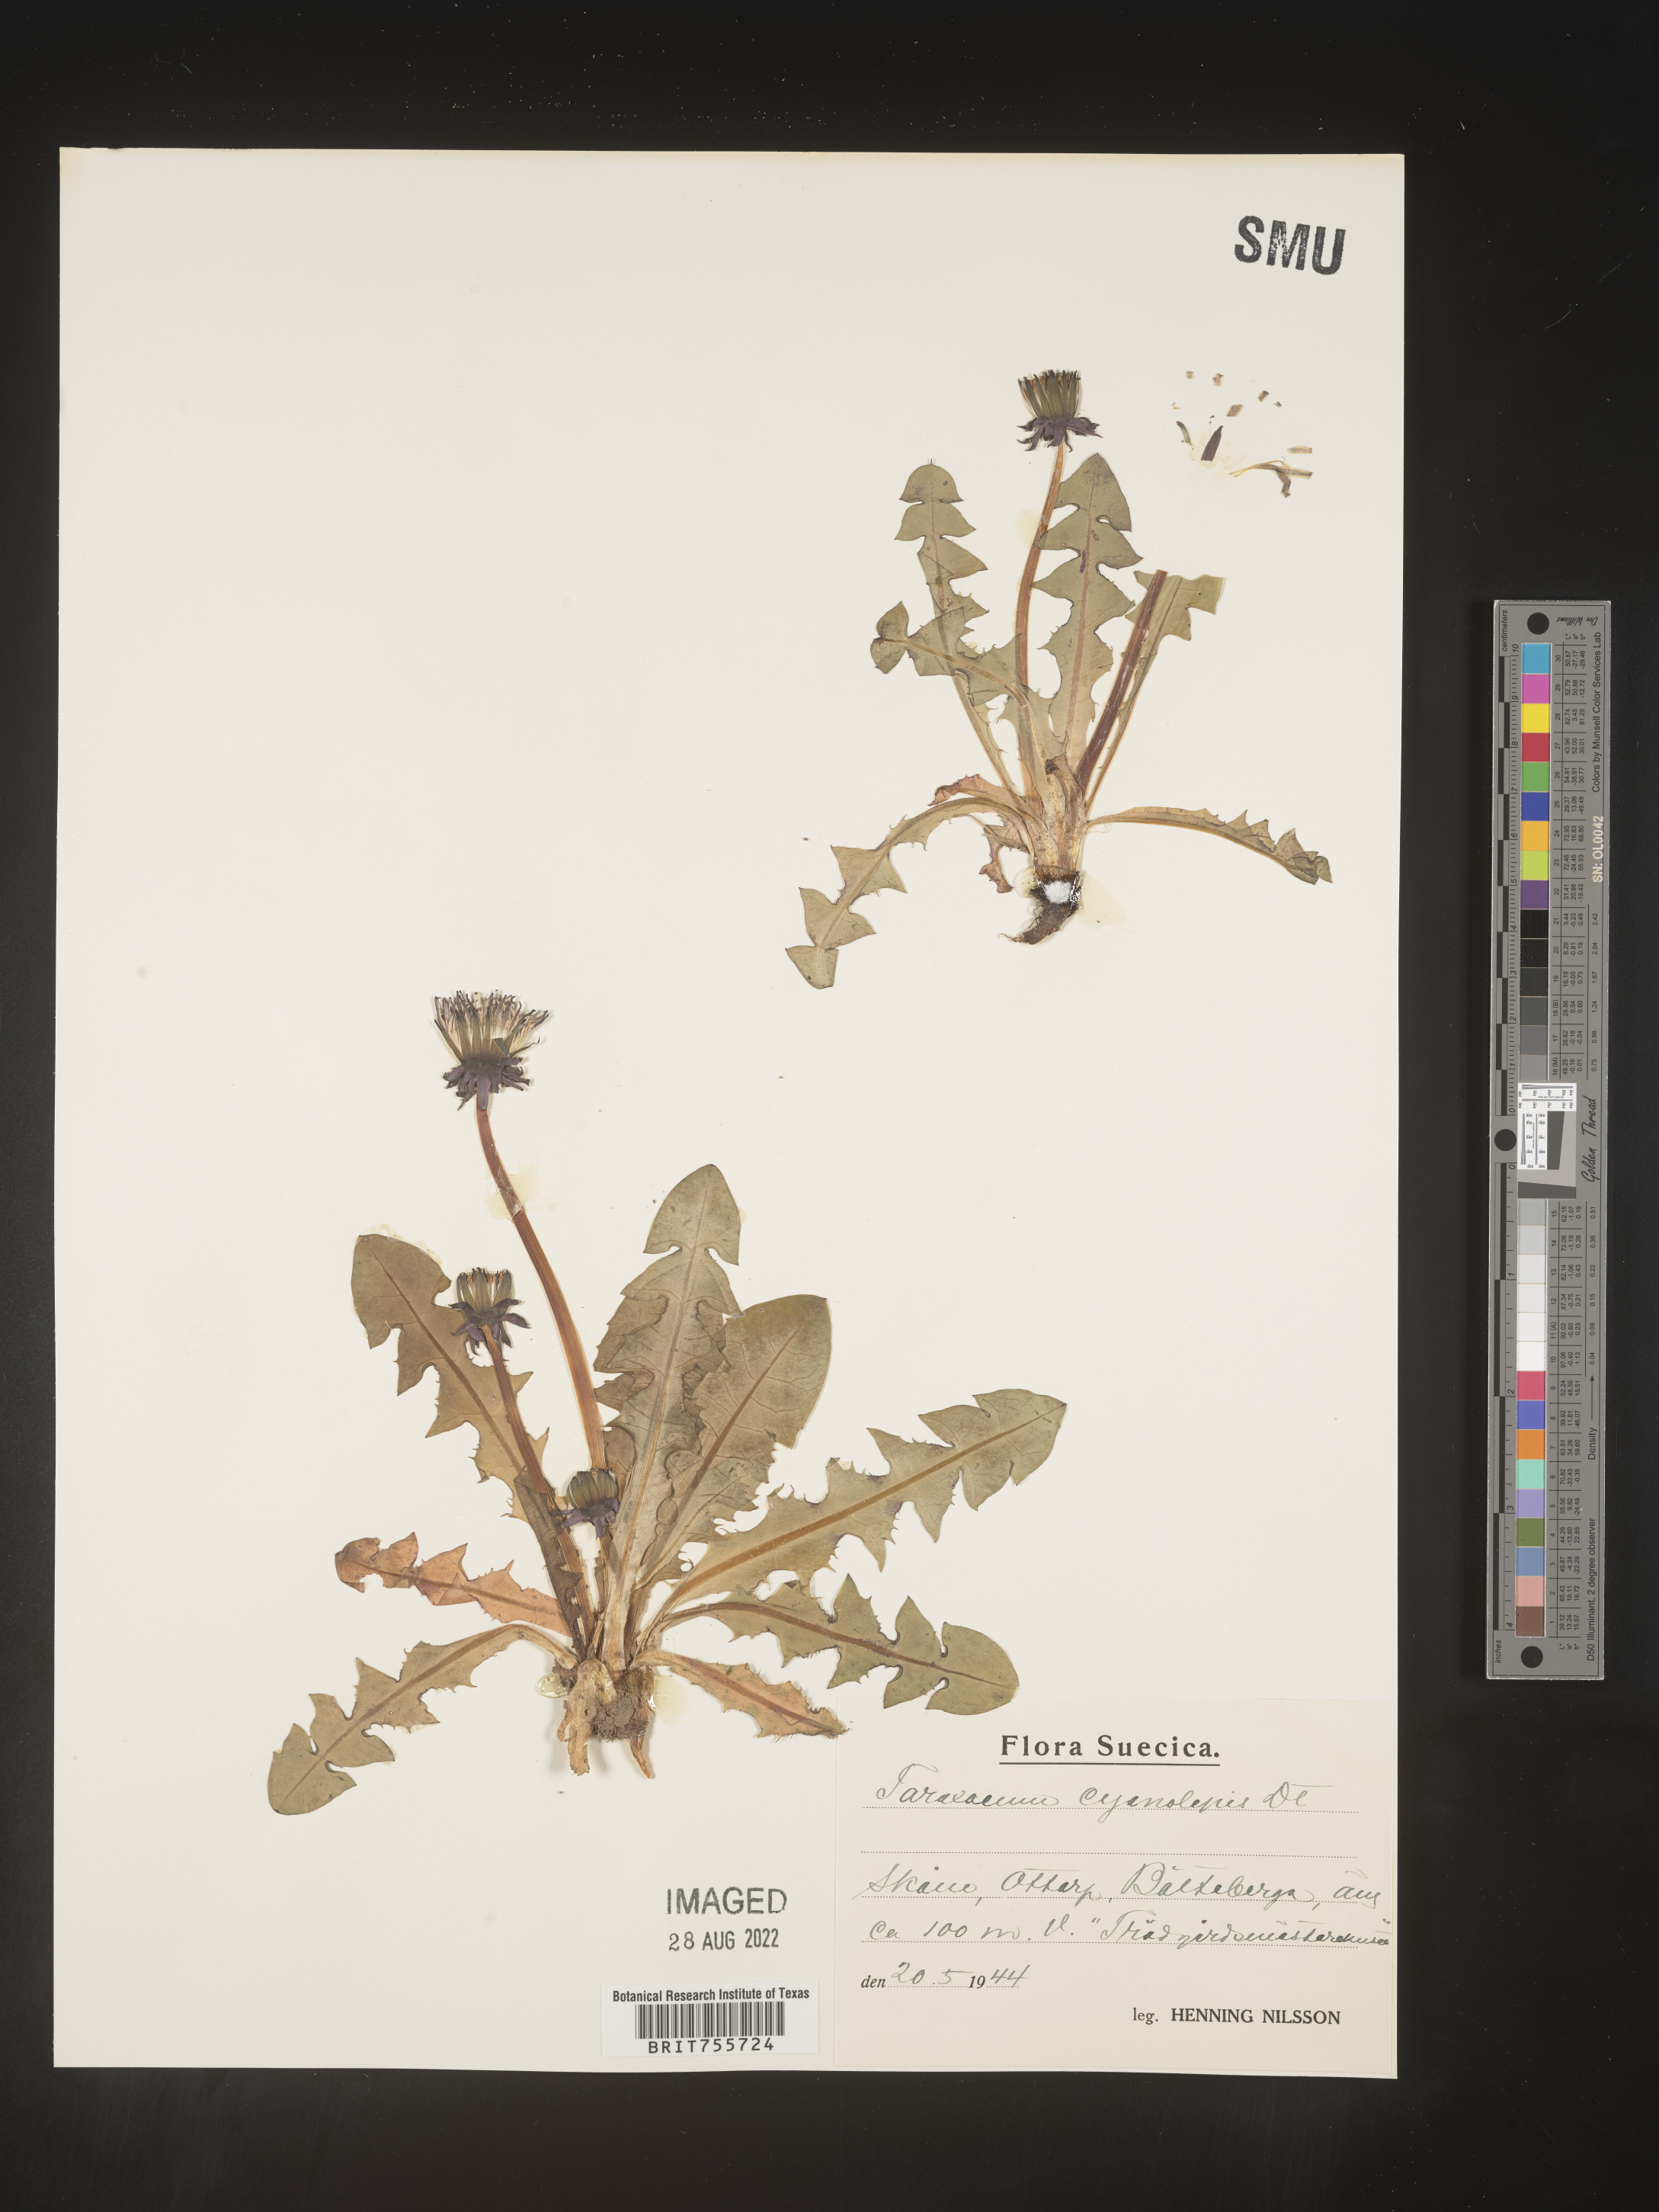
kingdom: Plantae
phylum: Tracheophyta
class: Magnoliopsida
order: Asterales
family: Asteraceae
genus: Taraxacum
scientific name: Taraxacum
